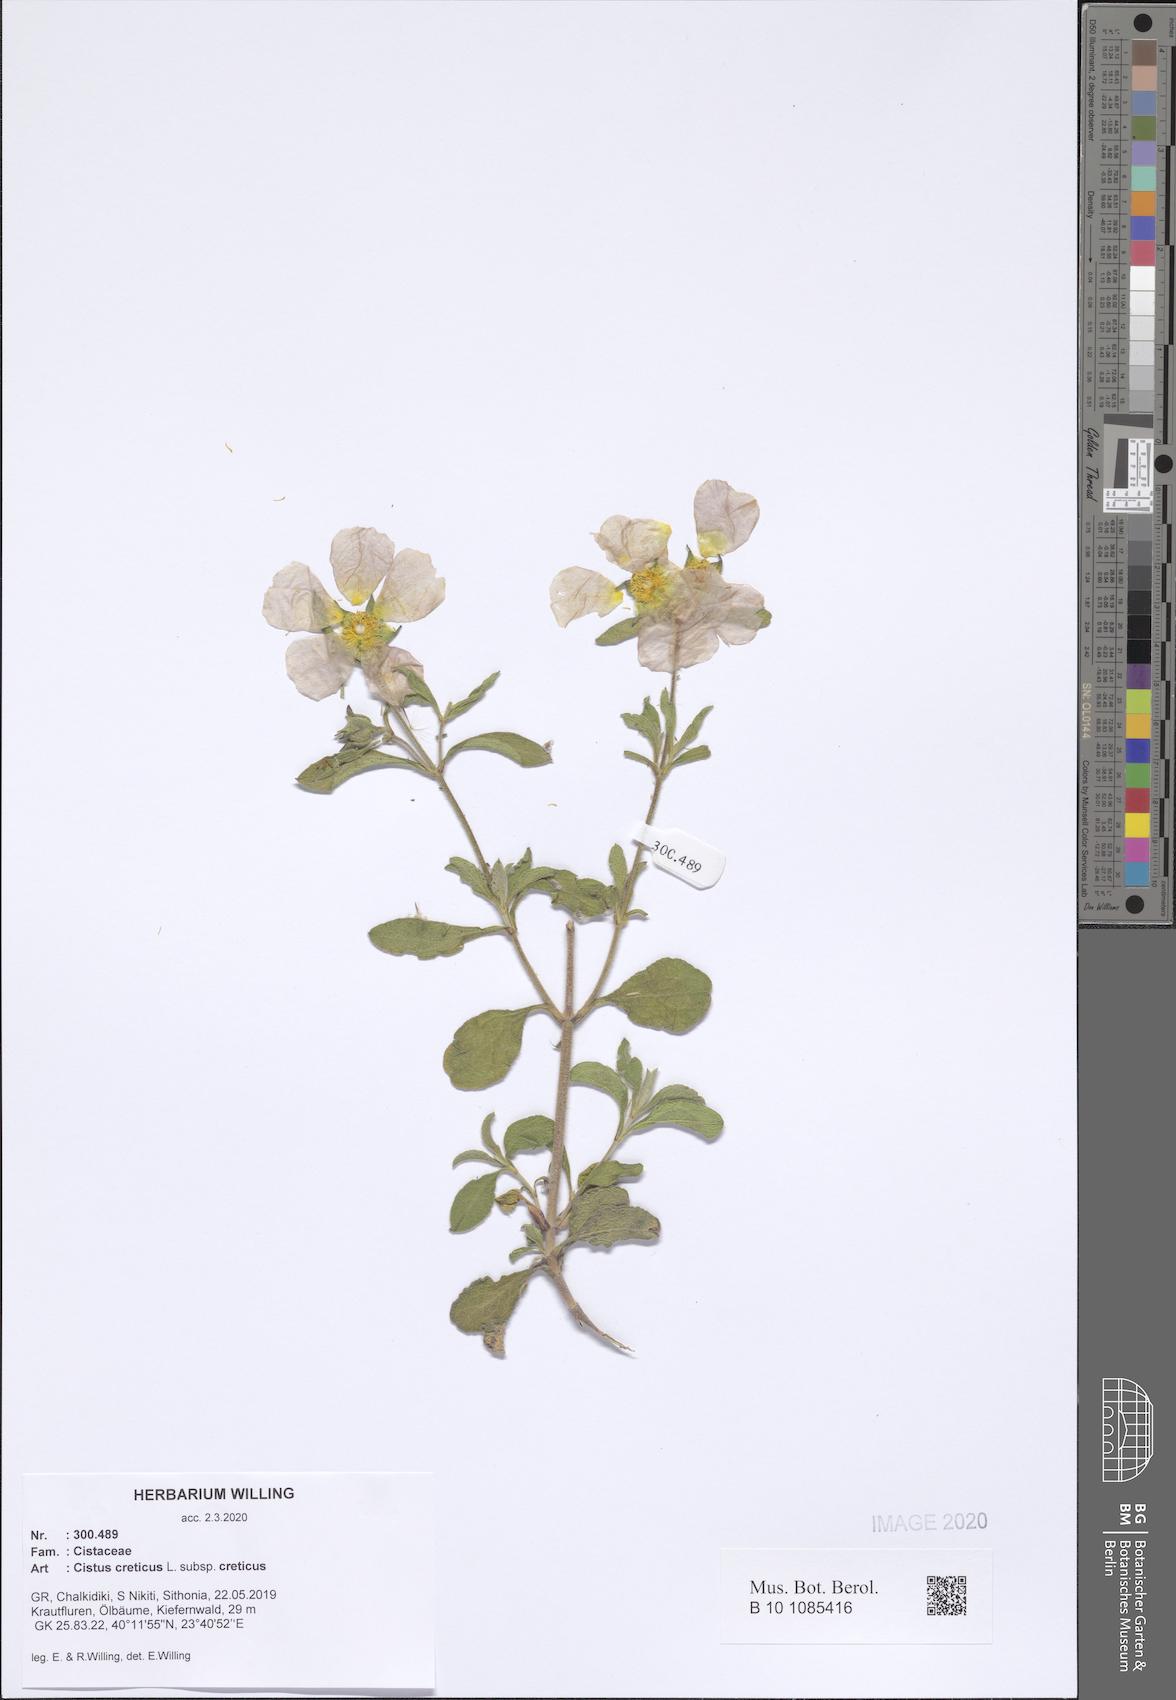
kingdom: Plantae
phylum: Tracheophyta
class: Magnoliopsida
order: Malvales
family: Cistaceae
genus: Cistus
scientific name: Cistus creticus
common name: Cretan rockrose
